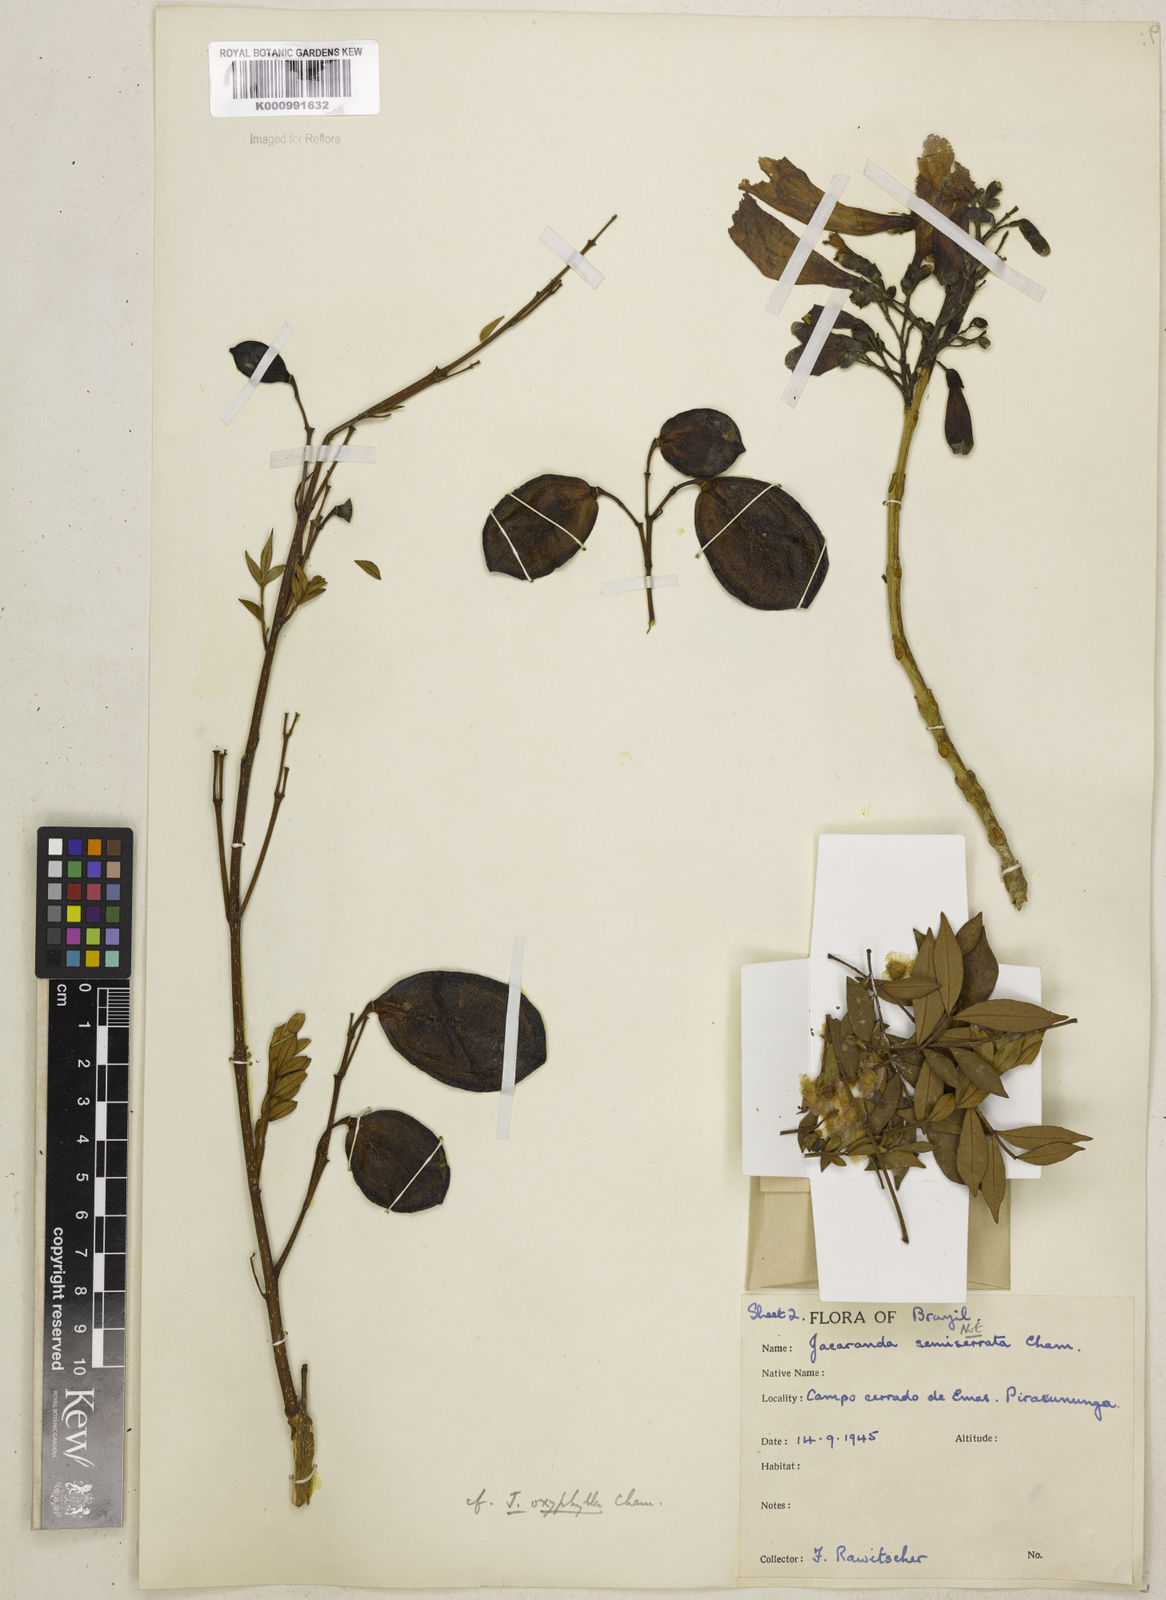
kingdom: Plantae
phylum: Tracheophyta
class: Magnoliopsida
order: Lamiales
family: Bignoniaceae
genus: Jacaranda
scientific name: Jacaranda caroba
